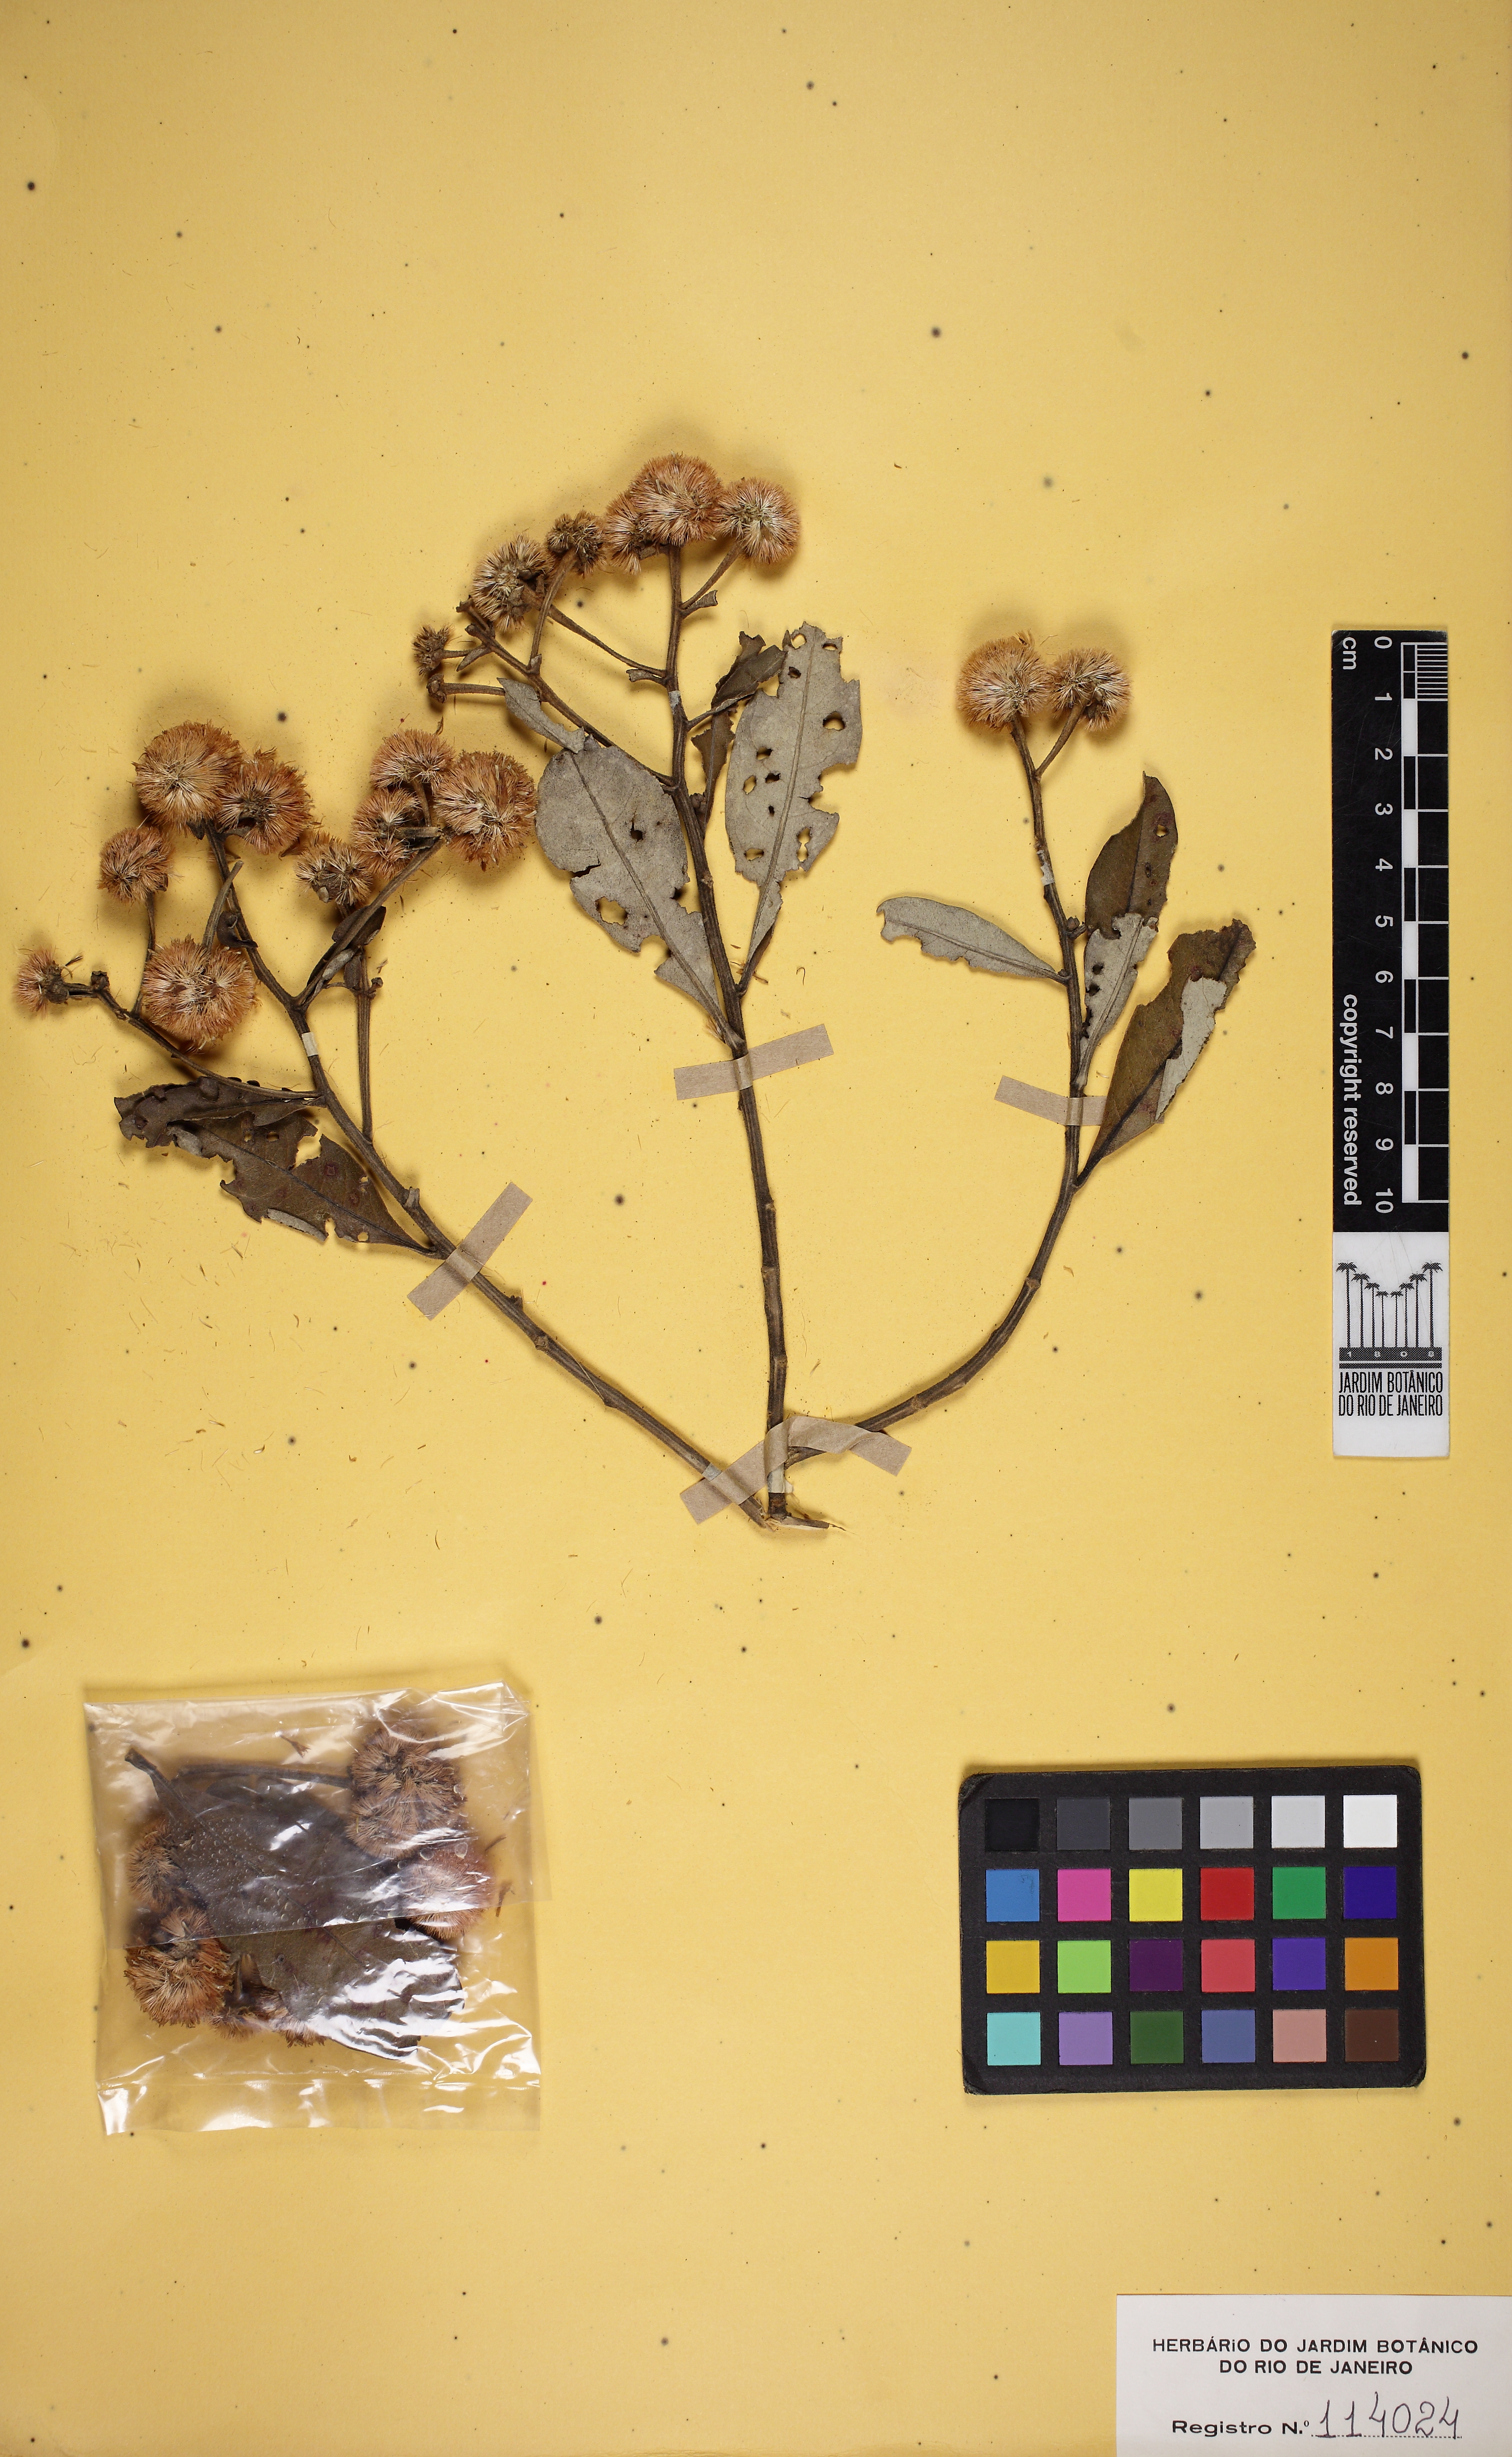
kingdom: Plantae
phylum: Tracheophyta
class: Magnoliopsida
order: Asterales
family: Asteraceae
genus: Eremanthus
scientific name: Eremanthus goyazensis
